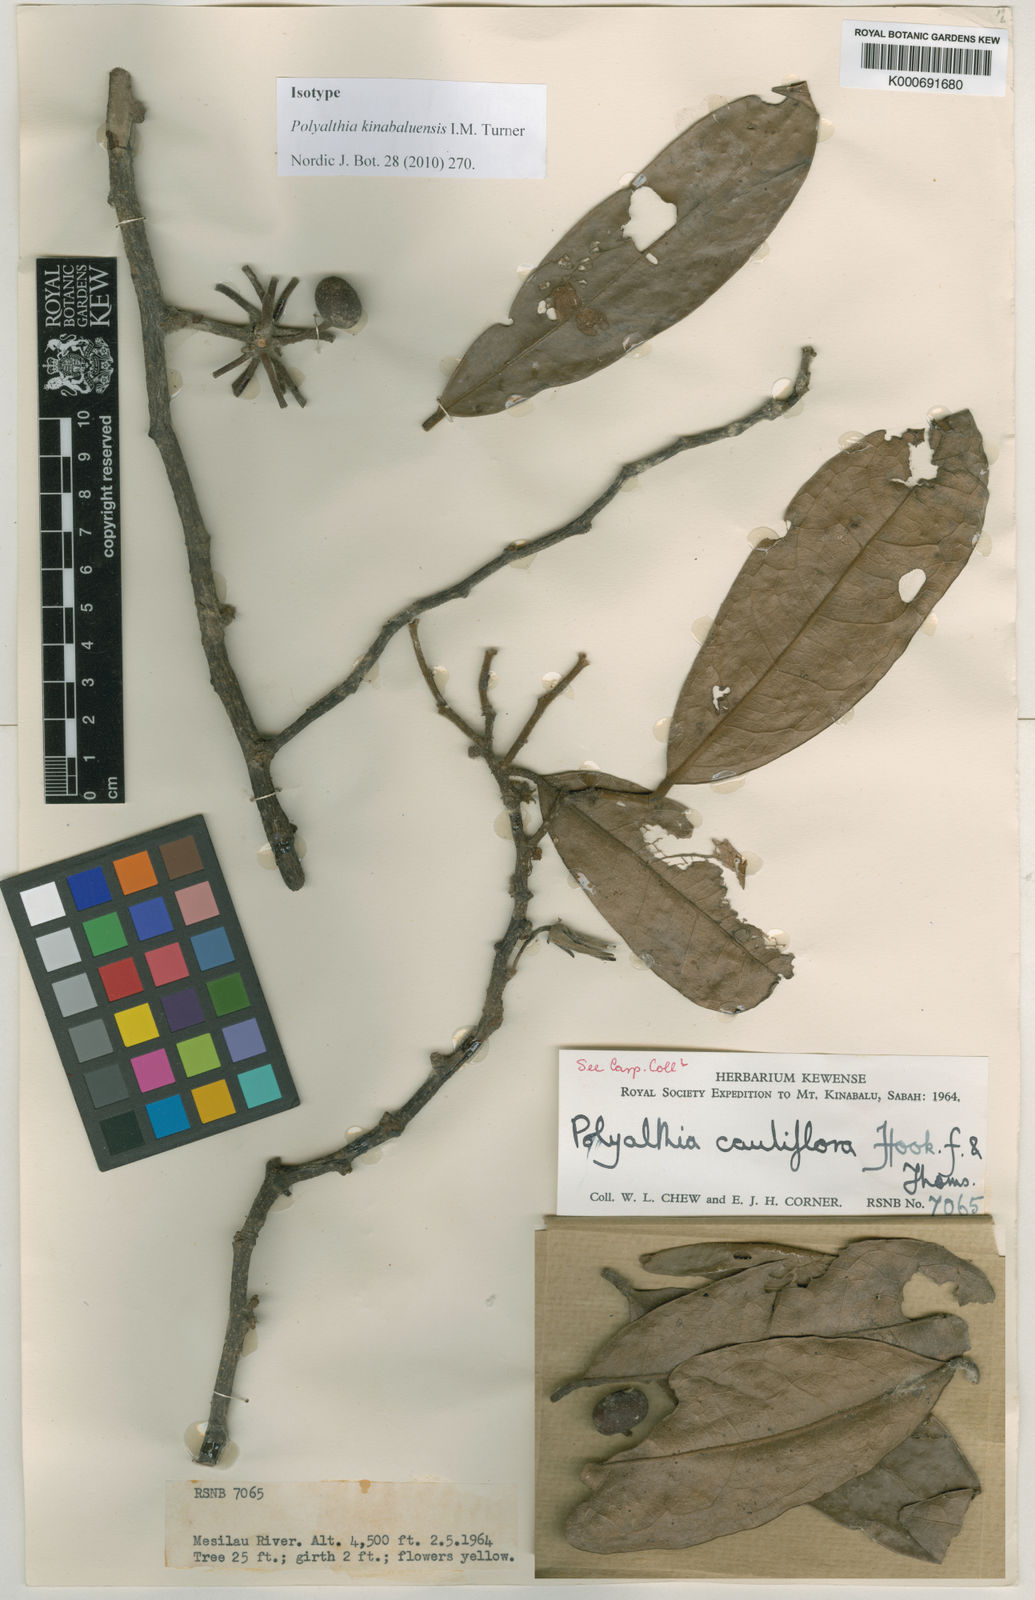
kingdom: Plantae
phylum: Tracheophyta
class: Magnoliopsida
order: Magnoliales
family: Annonaceae
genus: Polyalthia
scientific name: Polyalthia kinabaluensis
